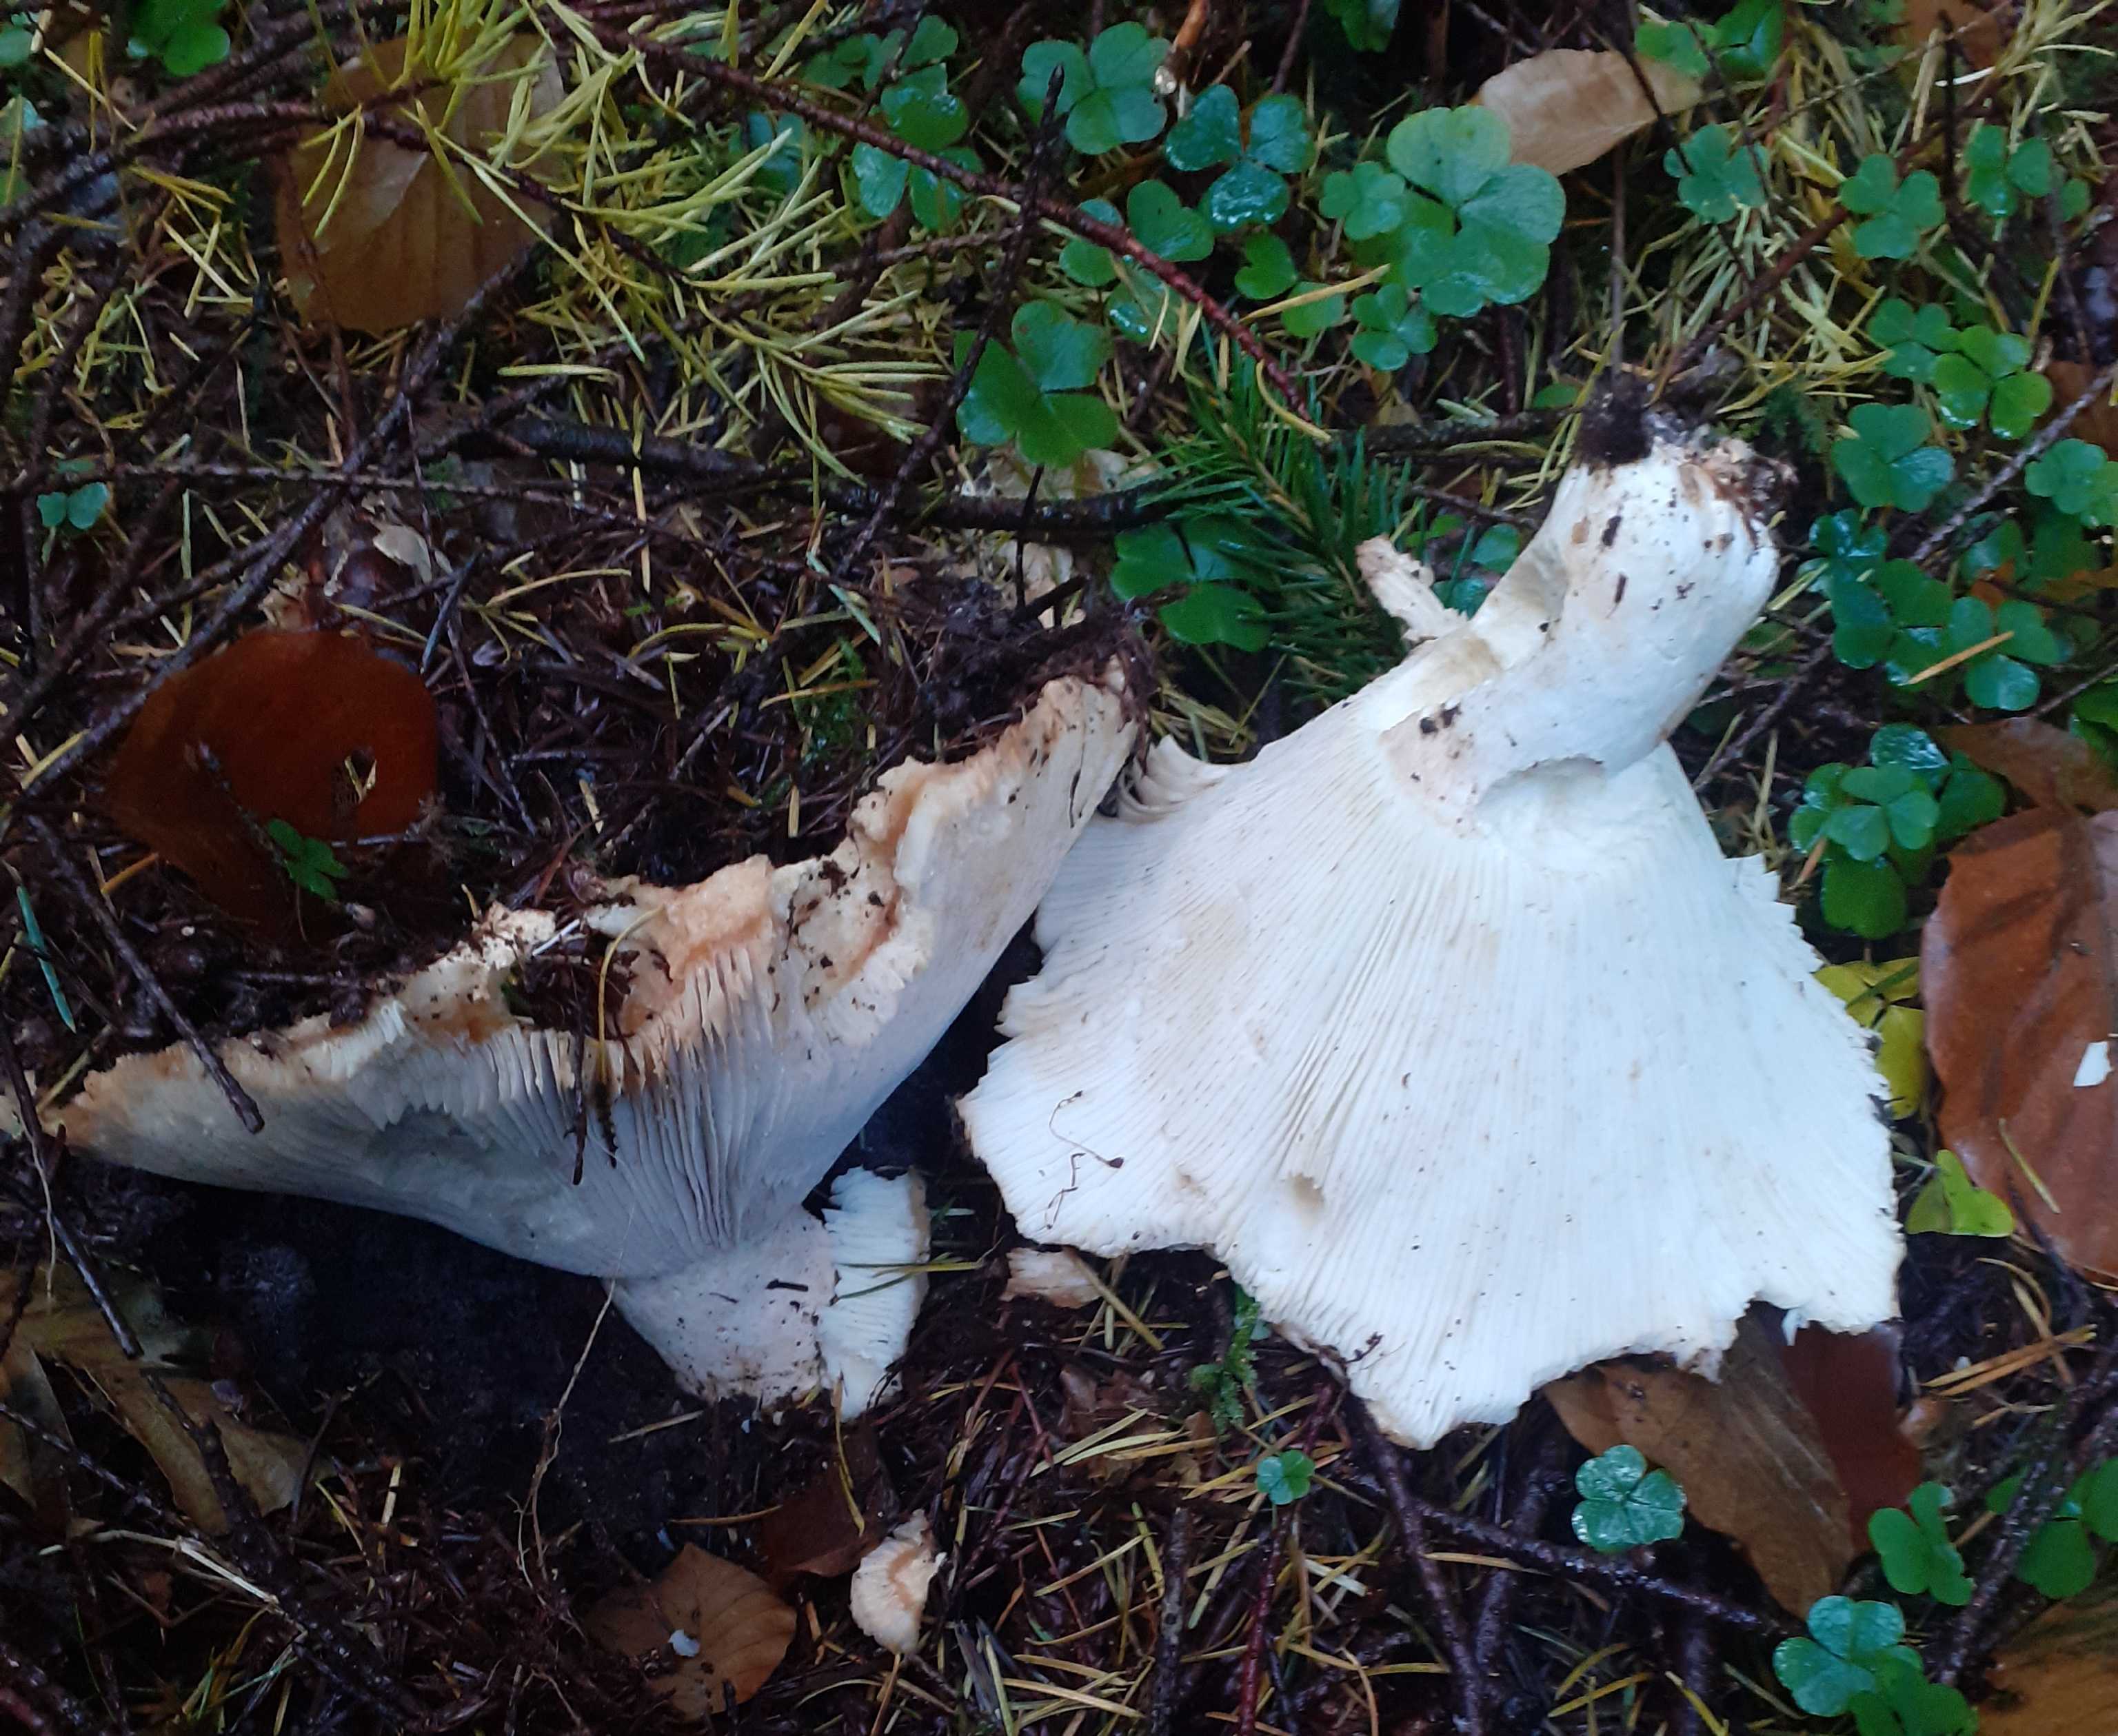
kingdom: Fungi
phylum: Basidiomycota
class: Agaricomycetes
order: Russulales
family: Russulaceae
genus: Russula
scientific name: Russula delica
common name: almindelig tragt-skørhat
